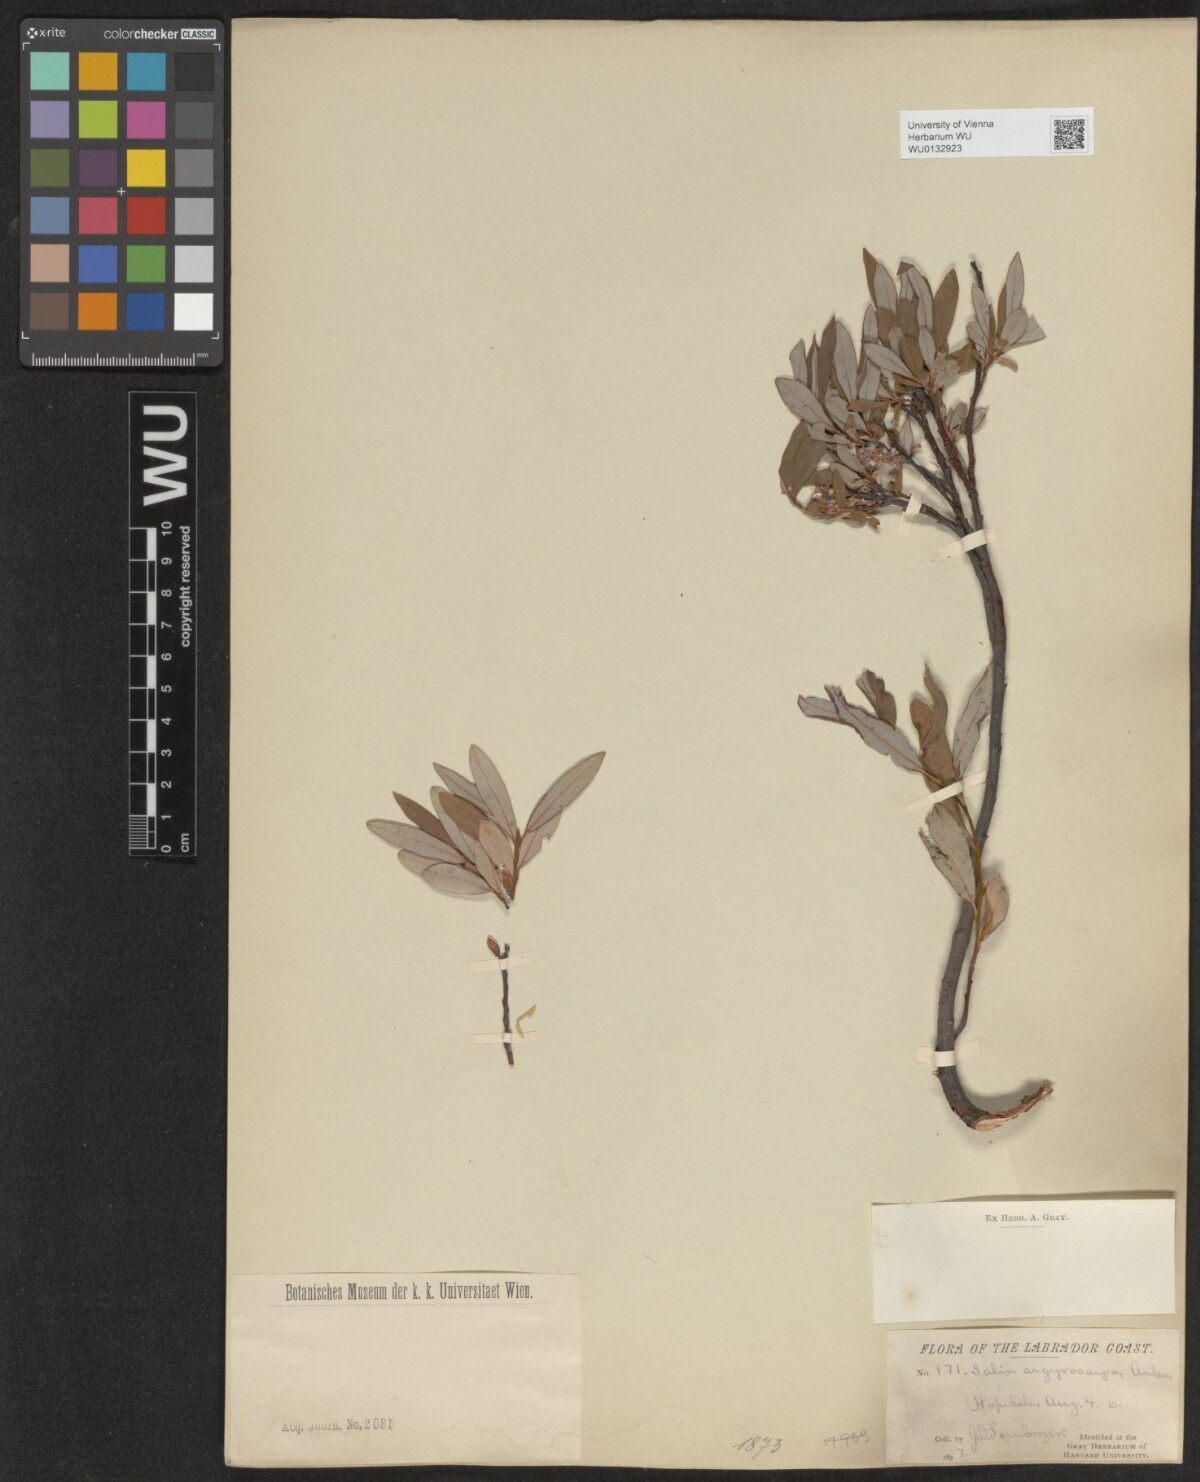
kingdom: Plantae
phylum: Tracheophyta
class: Magnoliopsida
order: Malpighiales
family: Salicaceae
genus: Salix
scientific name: Salix argyrocarpa
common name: Labrador willow
